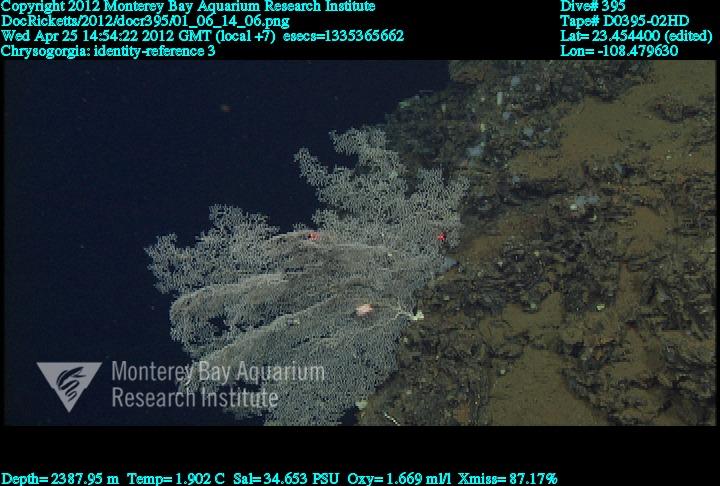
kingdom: Animalia
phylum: Cnidaria
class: Anthozoa
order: Scleralcyonacea
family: Chrysogorgiidae
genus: Chrysogorgia
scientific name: Chrysogorgia
